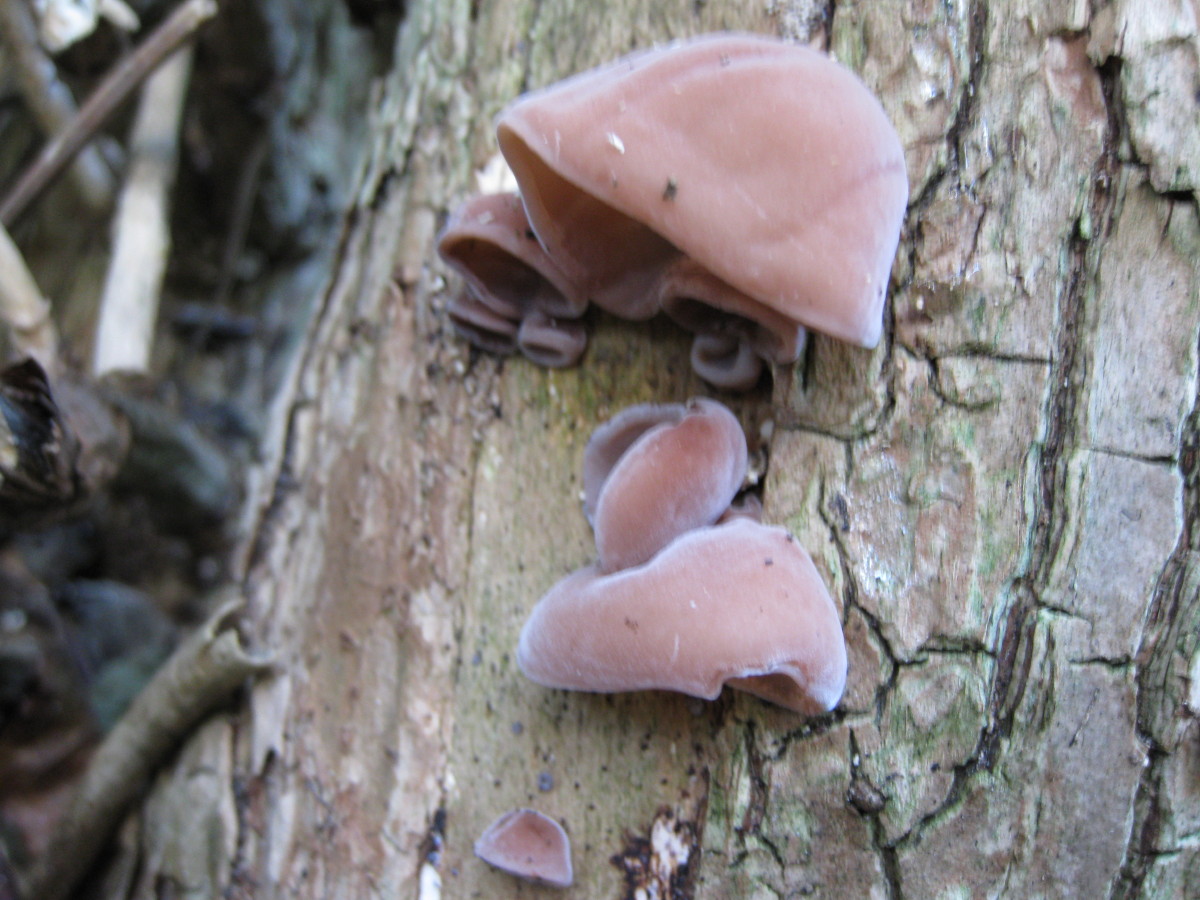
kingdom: Fungi
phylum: Basidiomycota
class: Agaricomycetes
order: Auriculariales
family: Auriculariaceae
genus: Auricularia
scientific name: Auricularia auricula-judae
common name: almindelig judasøre
